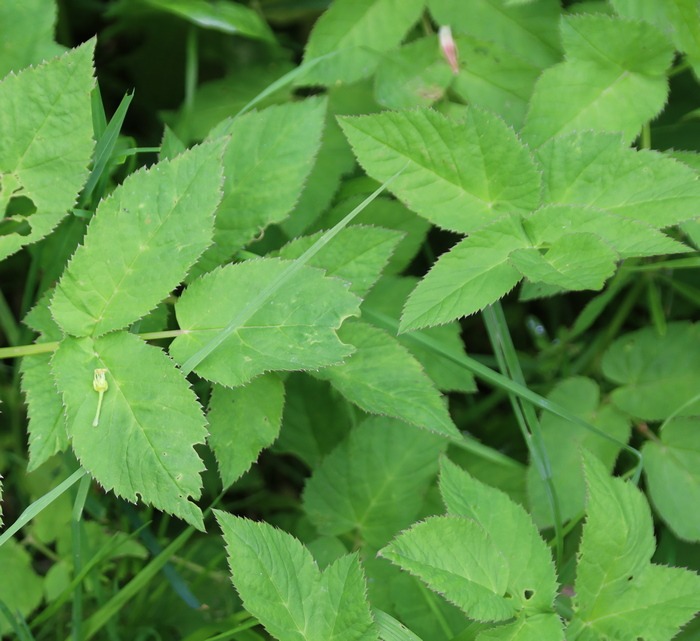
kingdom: Plantae
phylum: Tracheophyta
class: Magnoliopsida
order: Apiales
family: Apiaceae
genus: Aegopodium
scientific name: Aegopodium podagraria
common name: Skvalderkål
